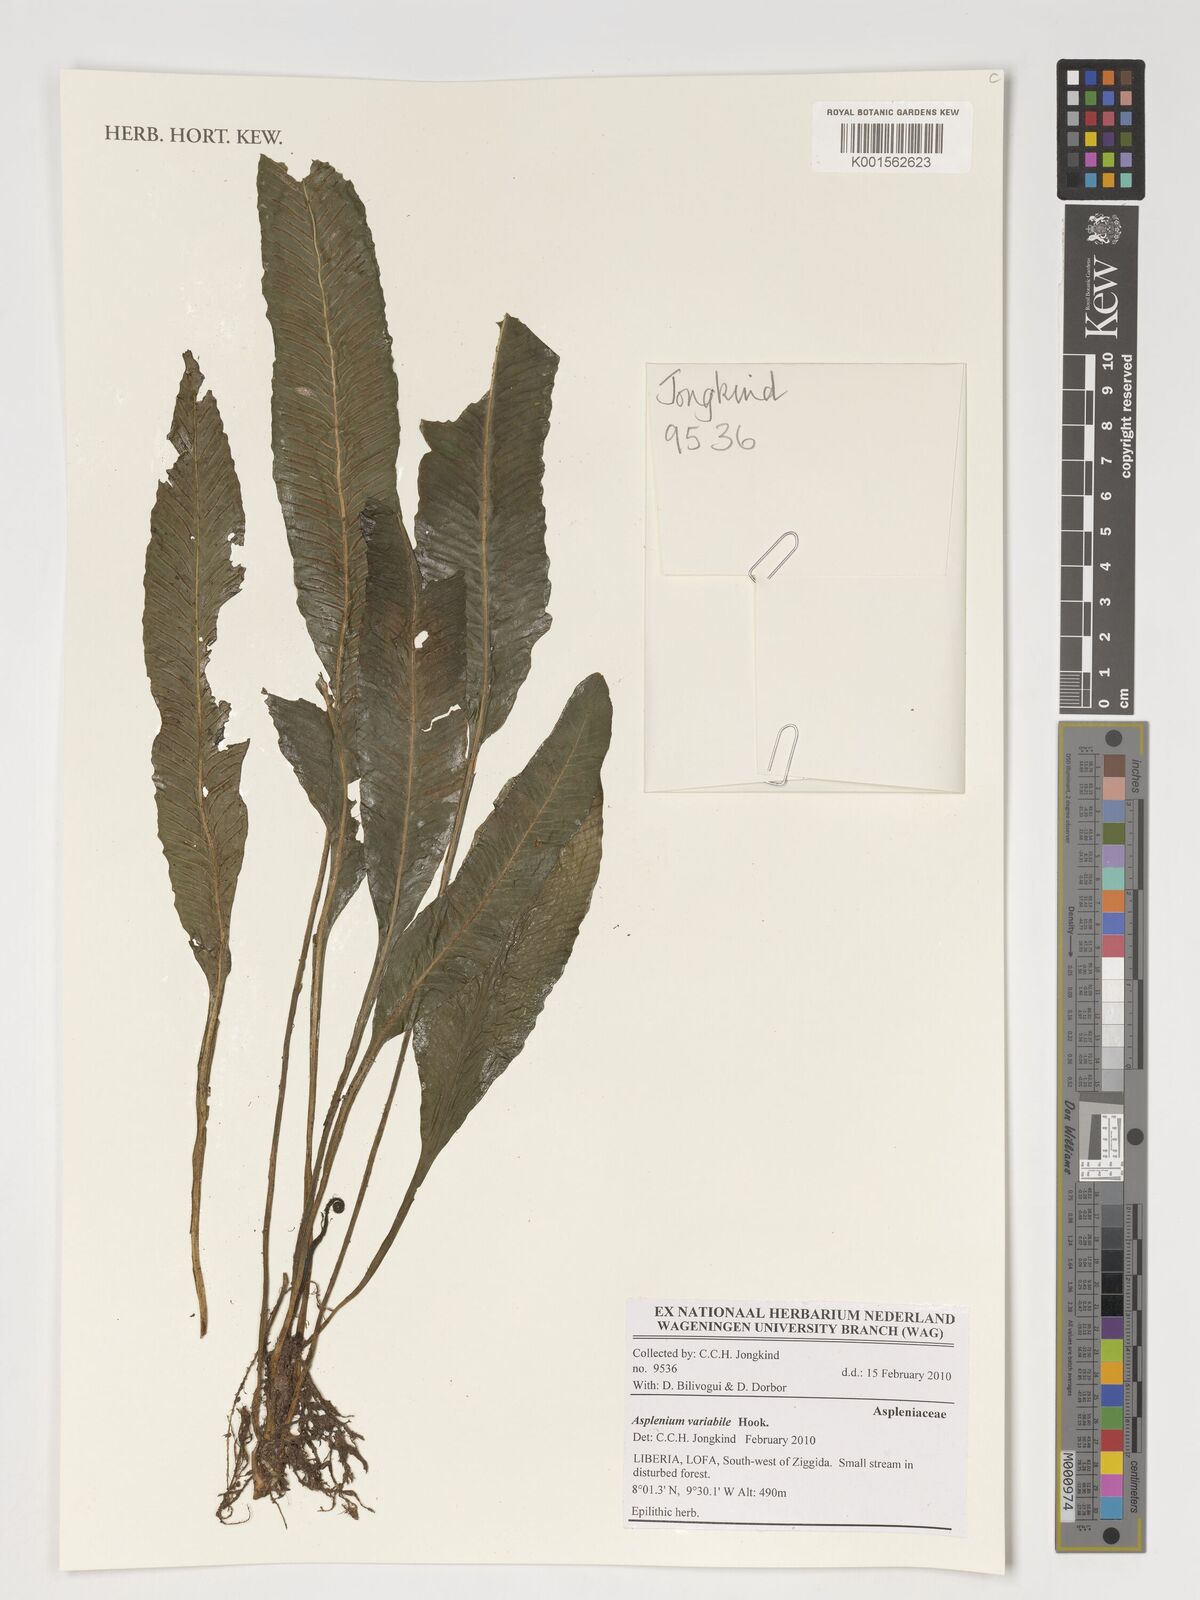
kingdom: Plantae
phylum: Tracheophyta
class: Polypodiopsida
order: Polypodiales
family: Aspleniaceae
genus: Asplenium
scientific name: Asplenium variabile
